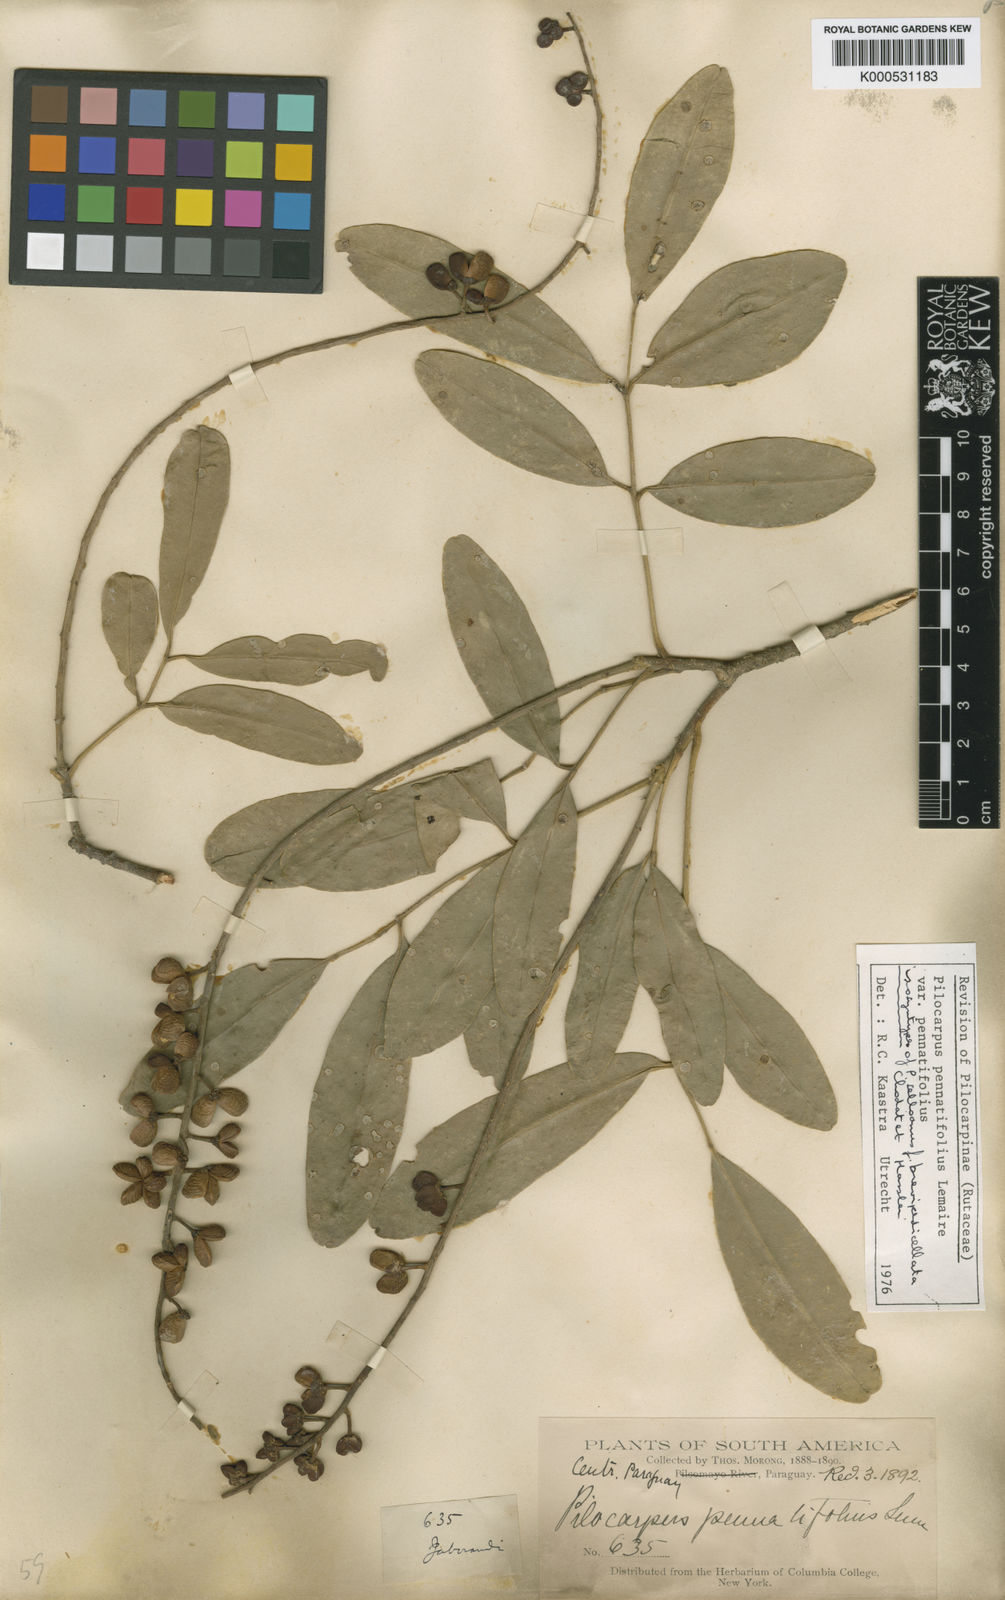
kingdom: Plantae
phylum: Tracheophyta
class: Magnoliopsida
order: Sapindales
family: Rutaceae
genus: Pilocarpus
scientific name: Pilocarpus pennatifolius
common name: Paraguay jaborandi
